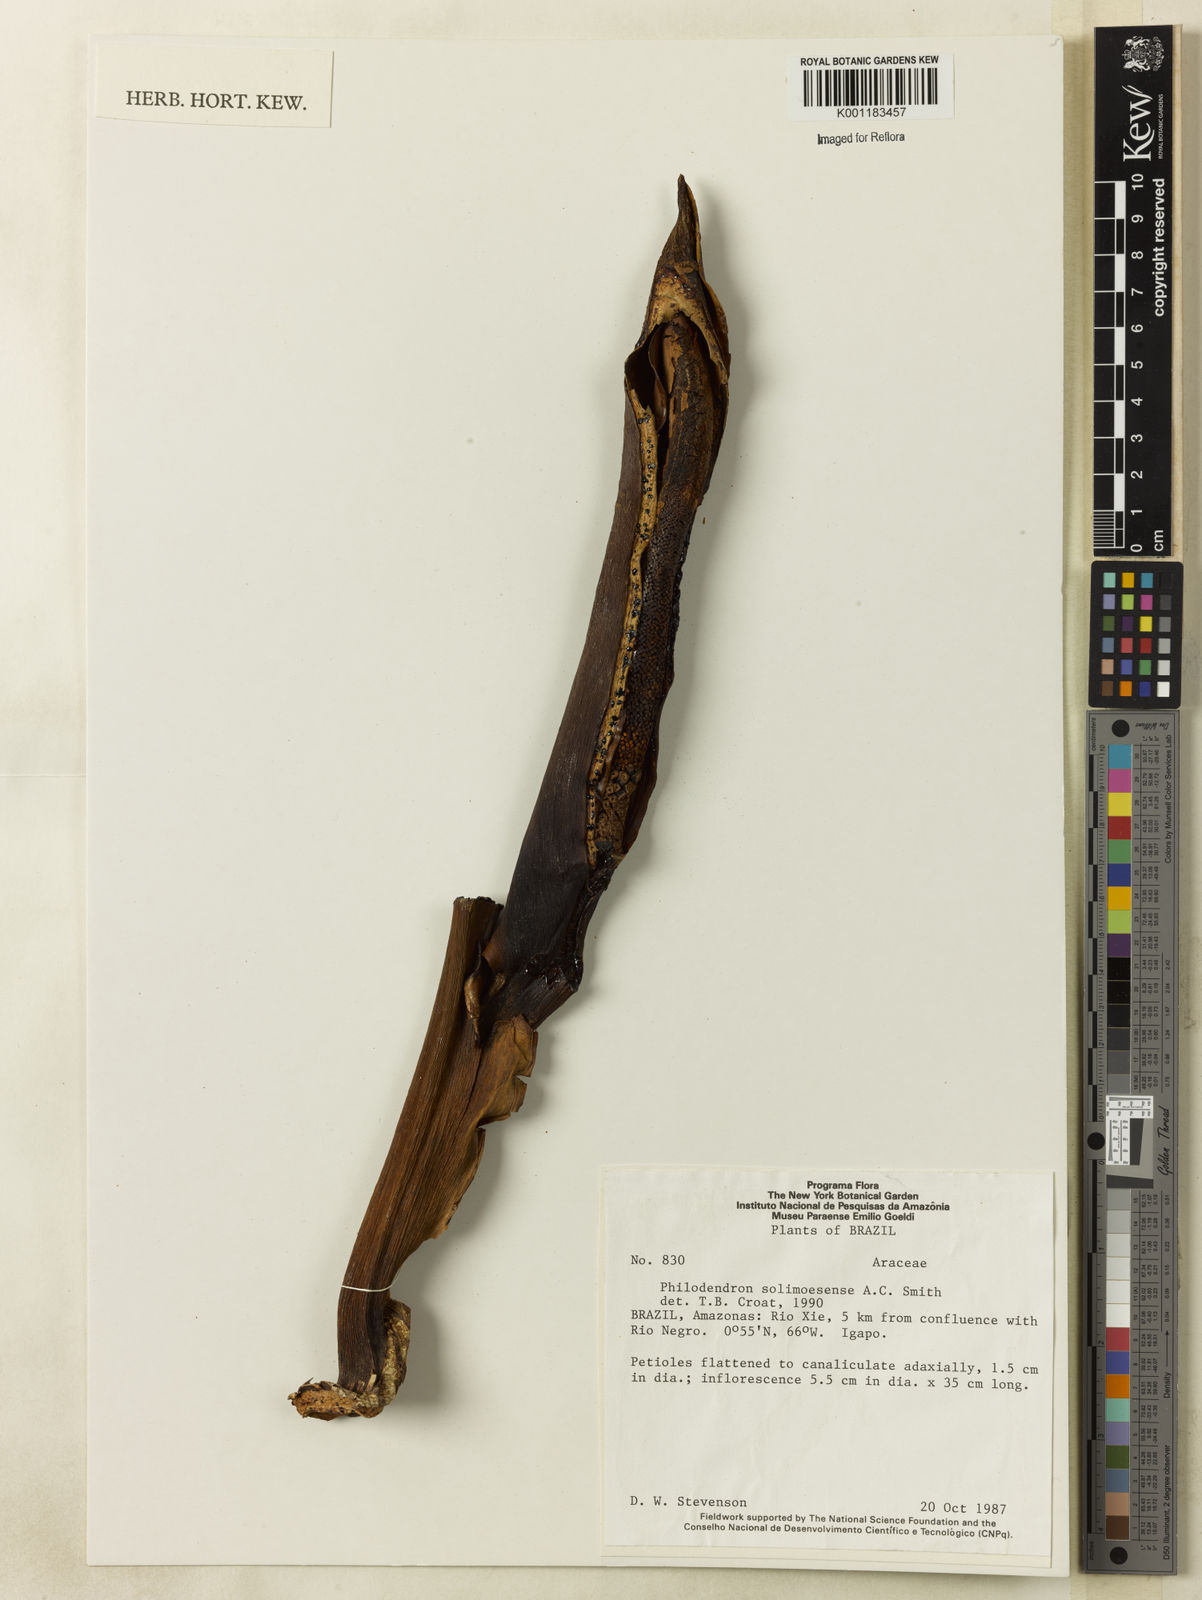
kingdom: Plantae
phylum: Tracheophyta
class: Liliopsida
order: Alismatales
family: Araceae
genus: Thaumatophyllum
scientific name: Thaumatophyllum solimoesense
